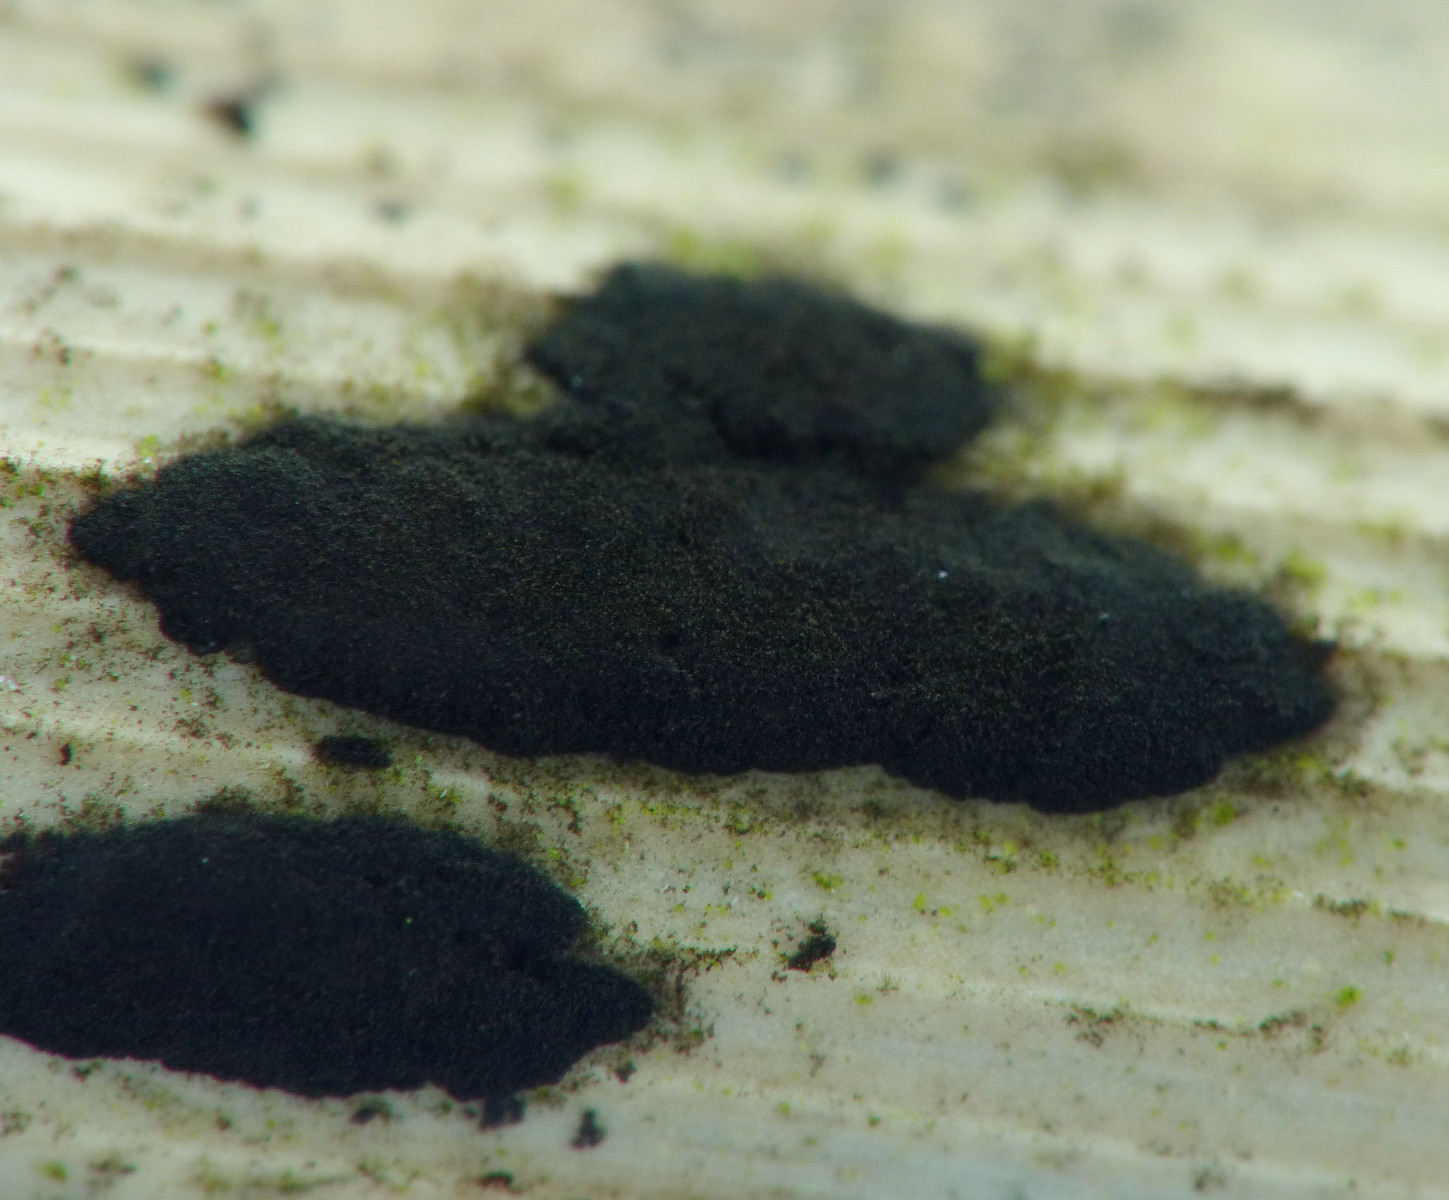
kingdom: Fungi
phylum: Ascomycota
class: Sordariomycetes
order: Xylariales
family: Apiosporaceae
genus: Apiospora
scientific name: Apiospora arundinis
